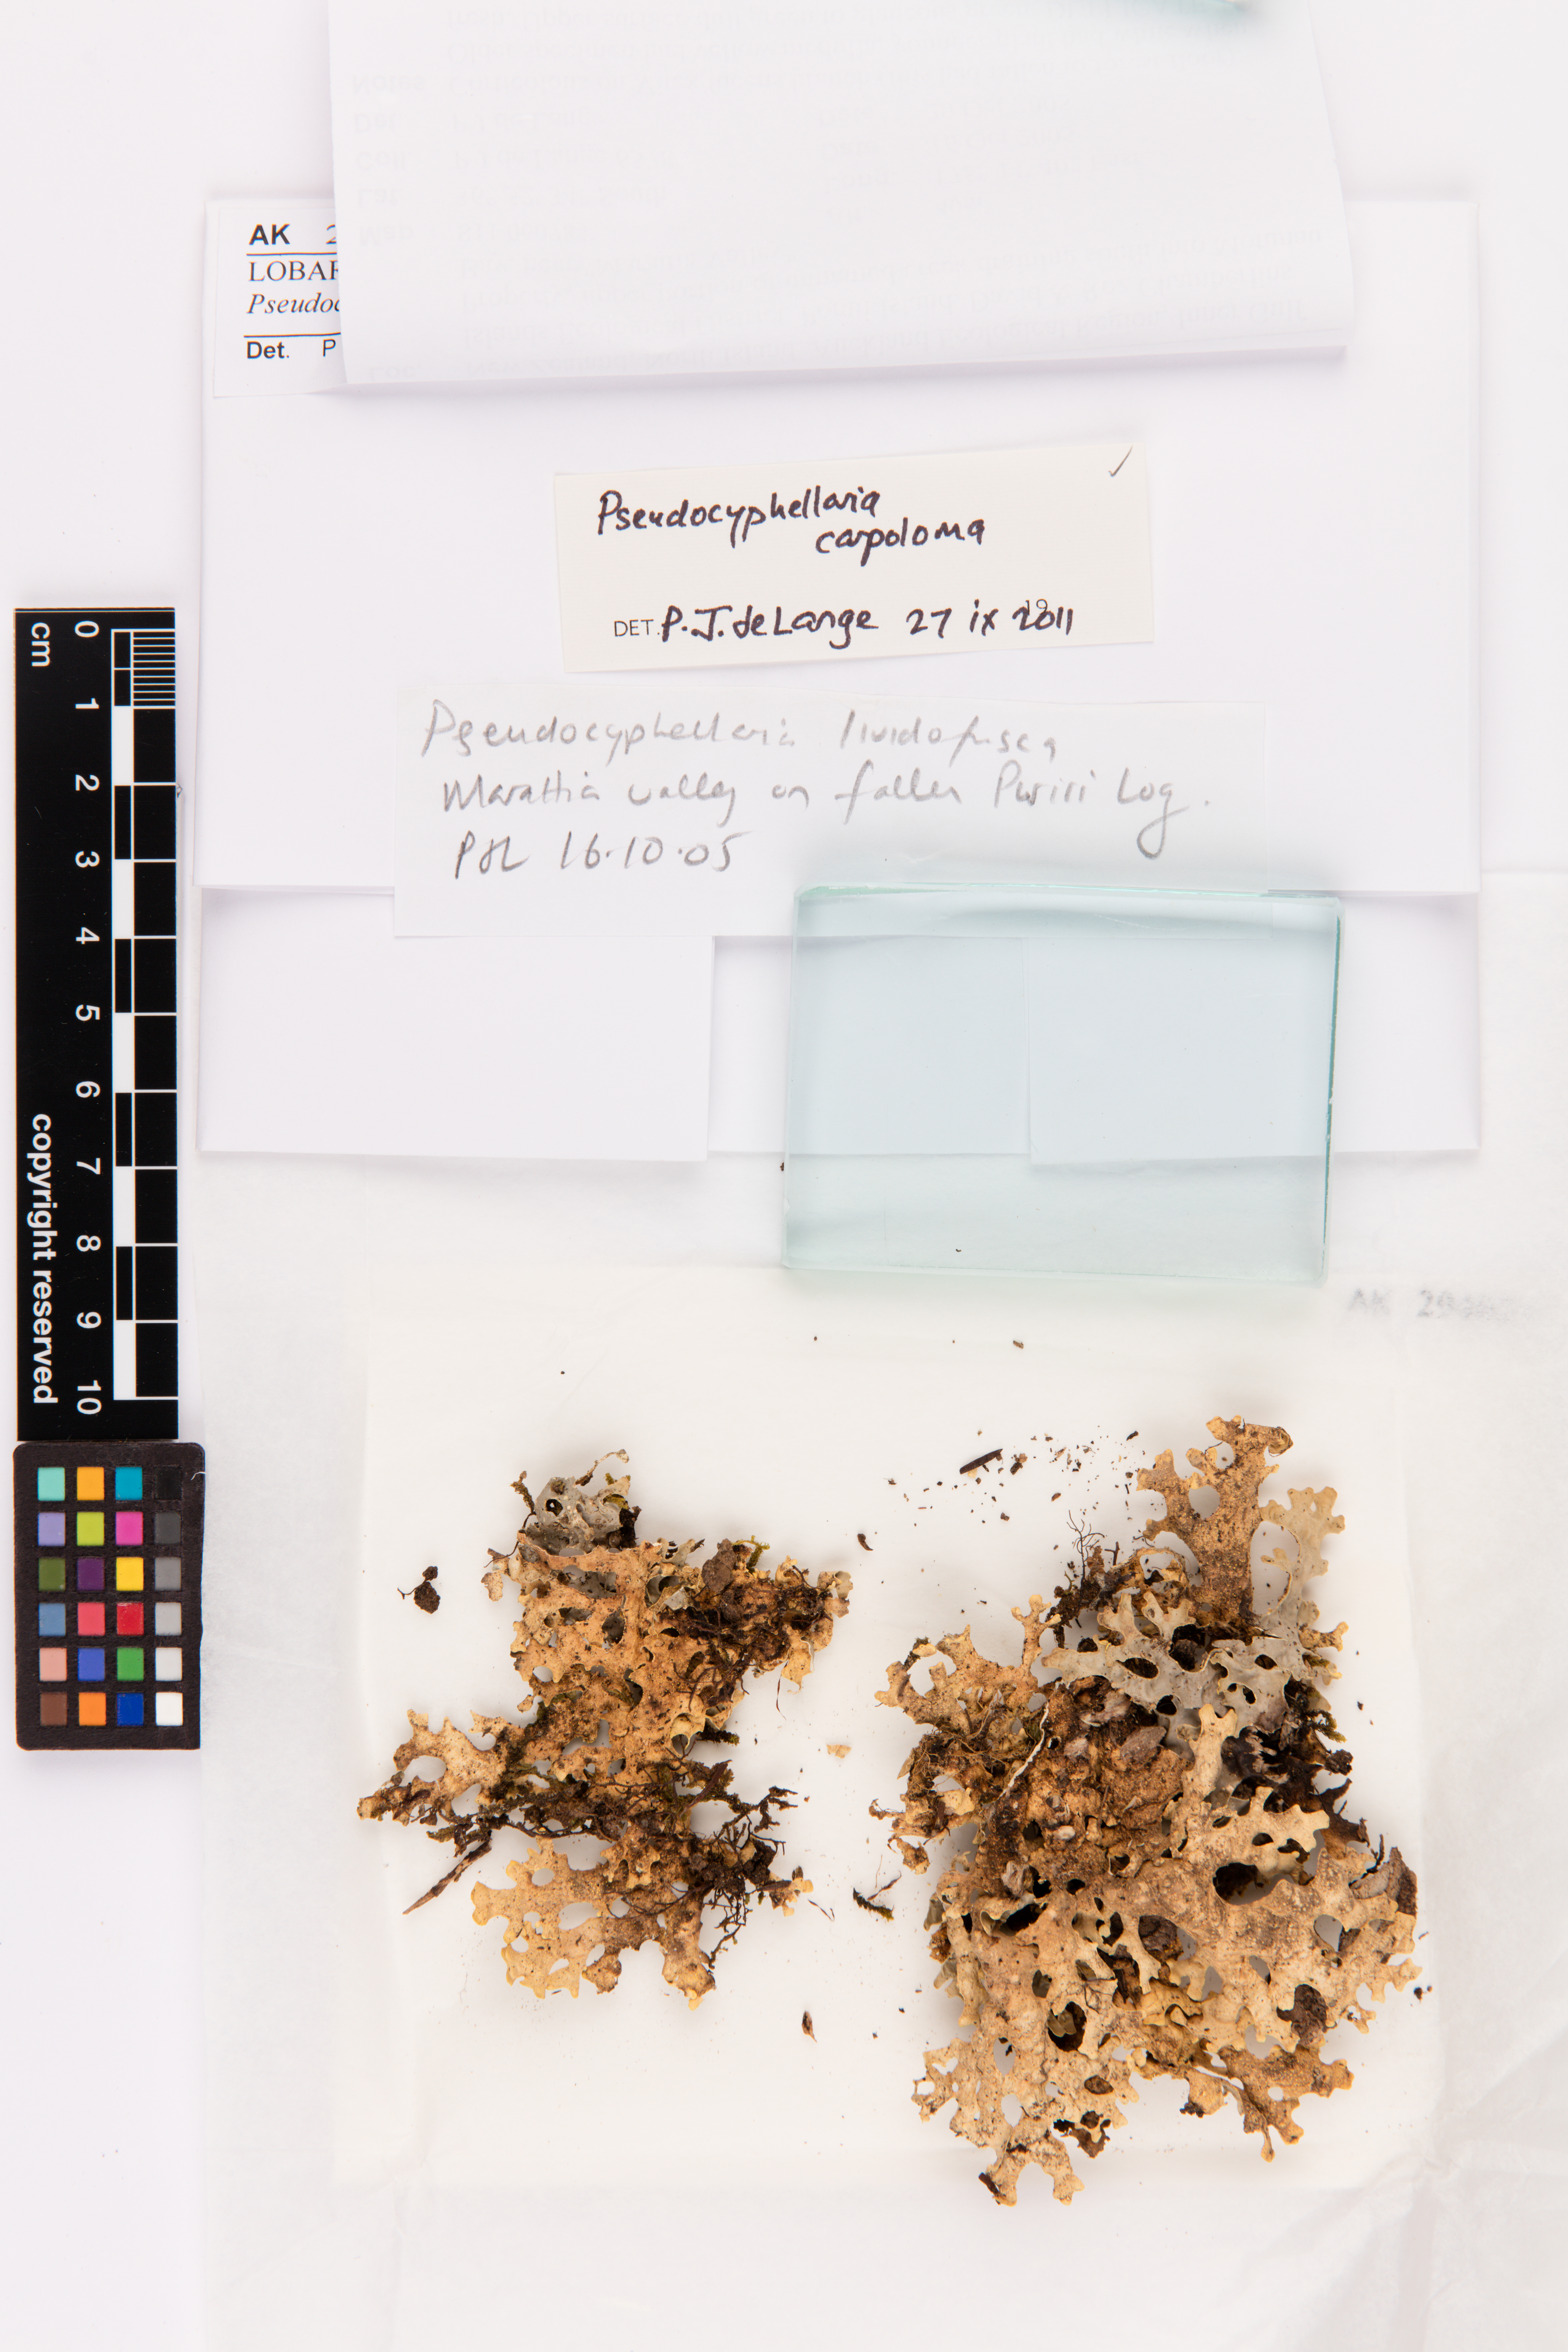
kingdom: Fungi
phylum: Ascomycota
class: Lecanoromycetes
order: Peltigerales
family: Lobariaceae
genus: Pseudocyphellaria
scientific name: Pseudocyphellaria carpoloma
